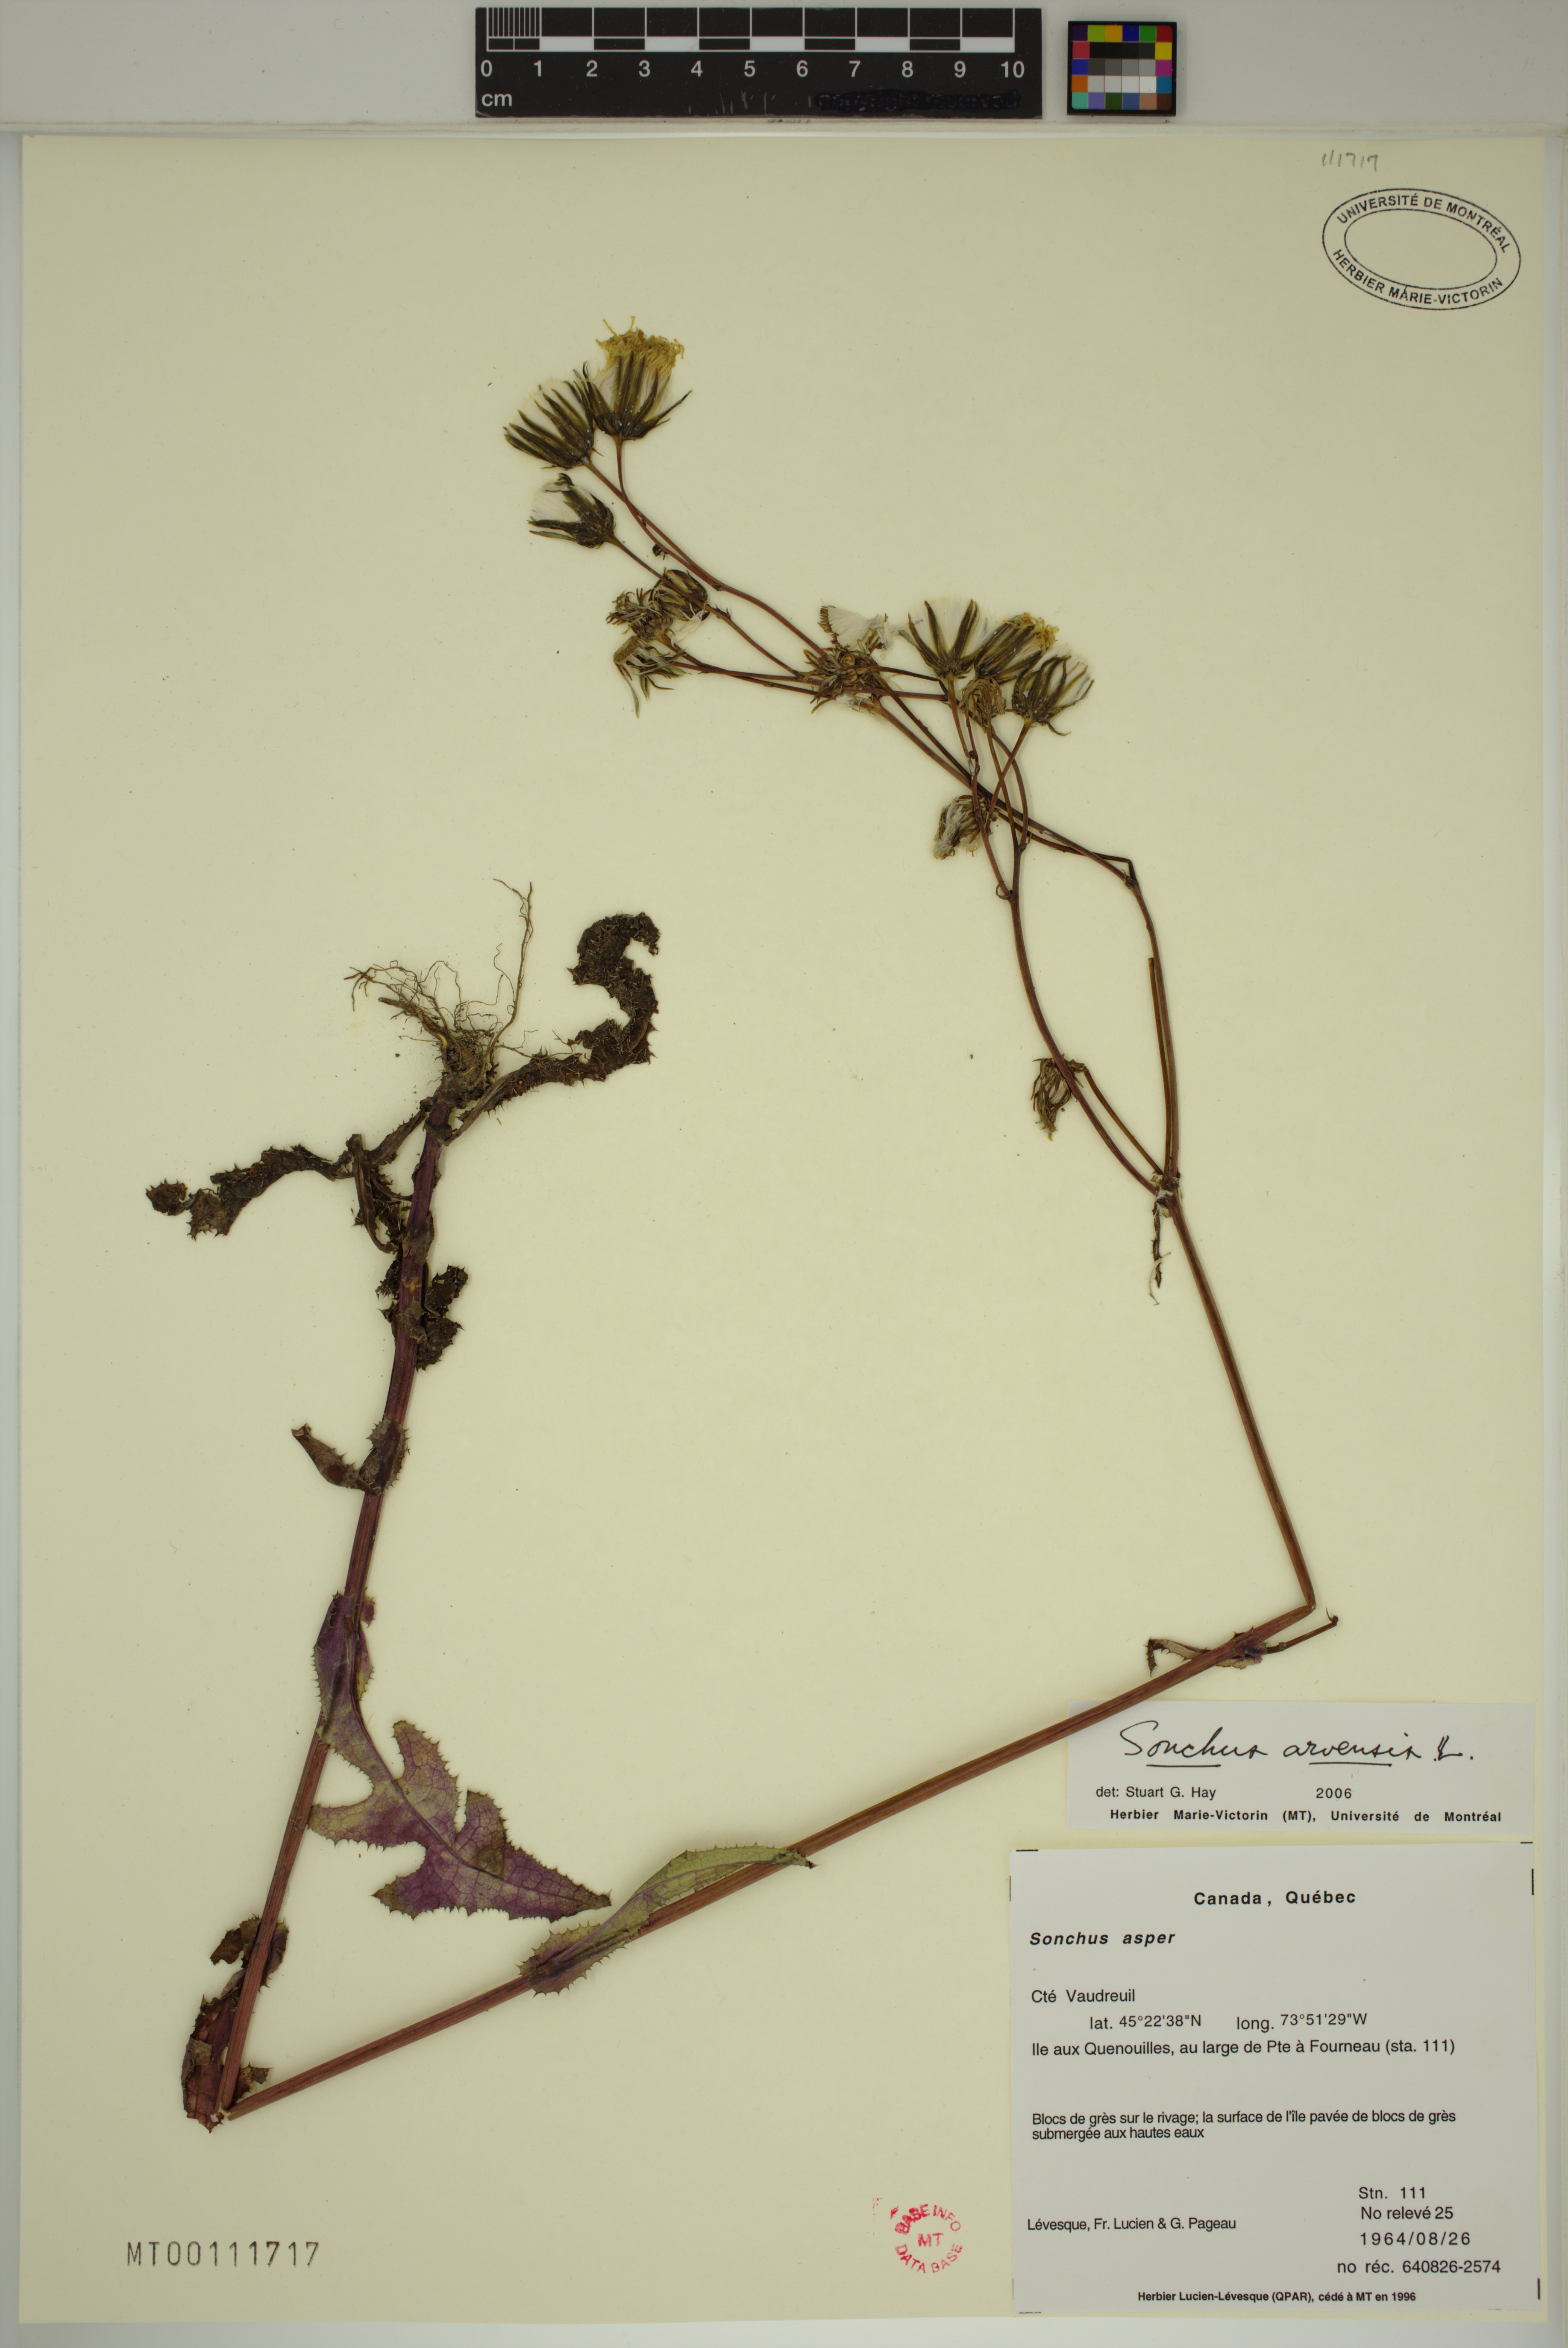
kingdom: Plantae
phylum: Tracheophyta
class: Magnoliopsida
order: Asterales
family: Asteraceae
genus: Sonchus
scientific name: Sonchus arvensis
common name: Perennial sow-thistle
